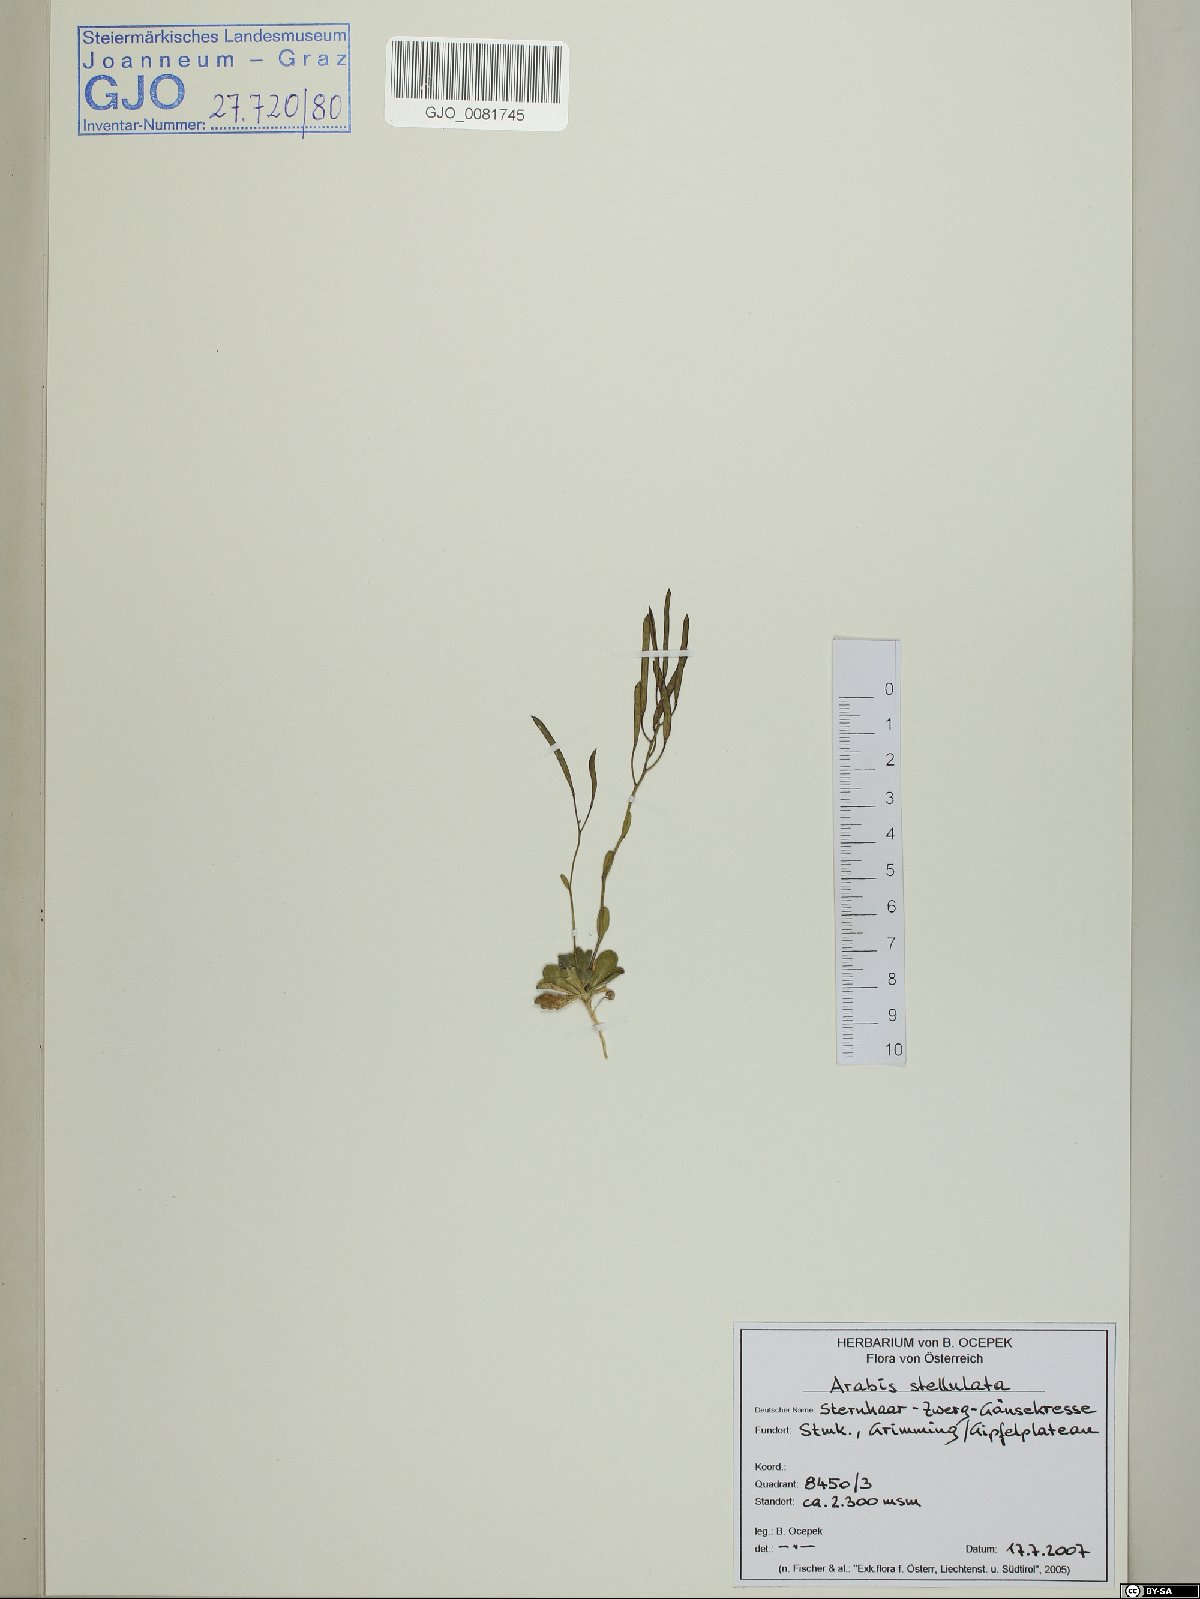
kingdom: Plantae
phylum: Tracheophyta
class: Magnoliopsida
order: Brassicales
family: Brassicaceae
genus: Arabis
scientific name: Arabis stellulata
